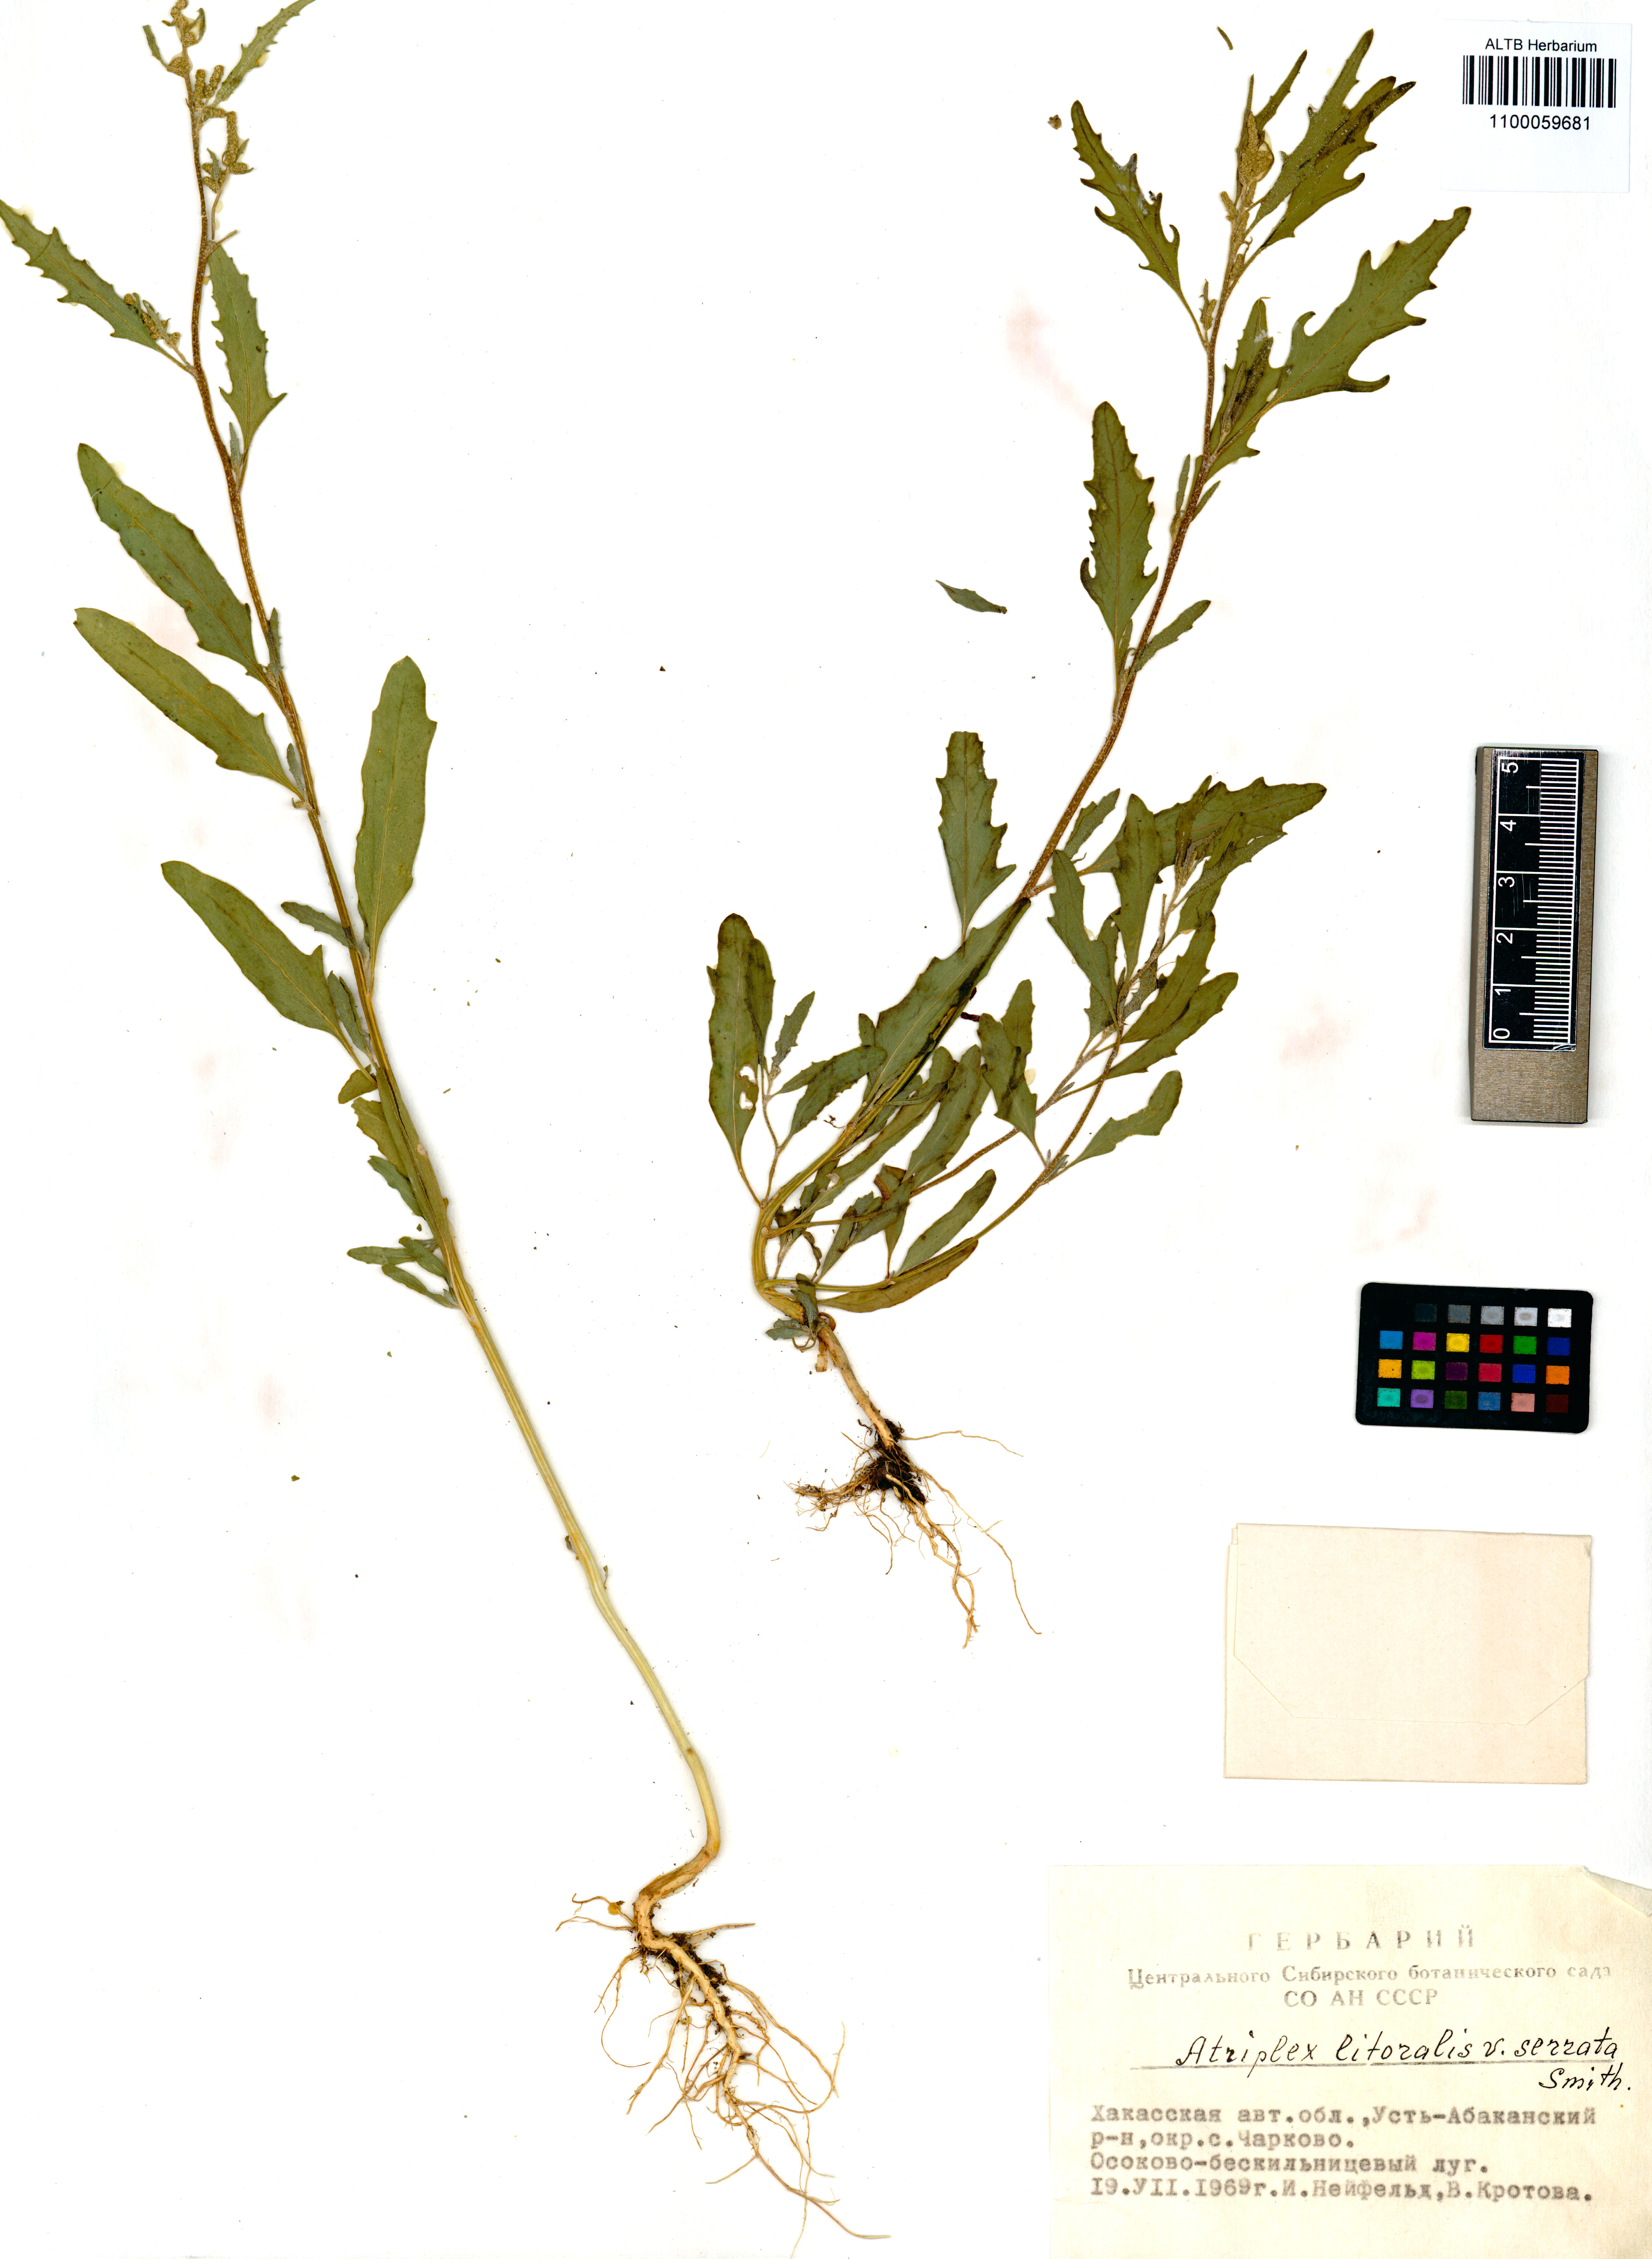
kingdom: Plantae
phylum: Tracheophyta
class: Magnoliopsida
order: Caryophyllales
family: Amaranthaceae
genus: Atriplex
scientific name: Atriplex littoralis
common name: Grass-leaved orache
